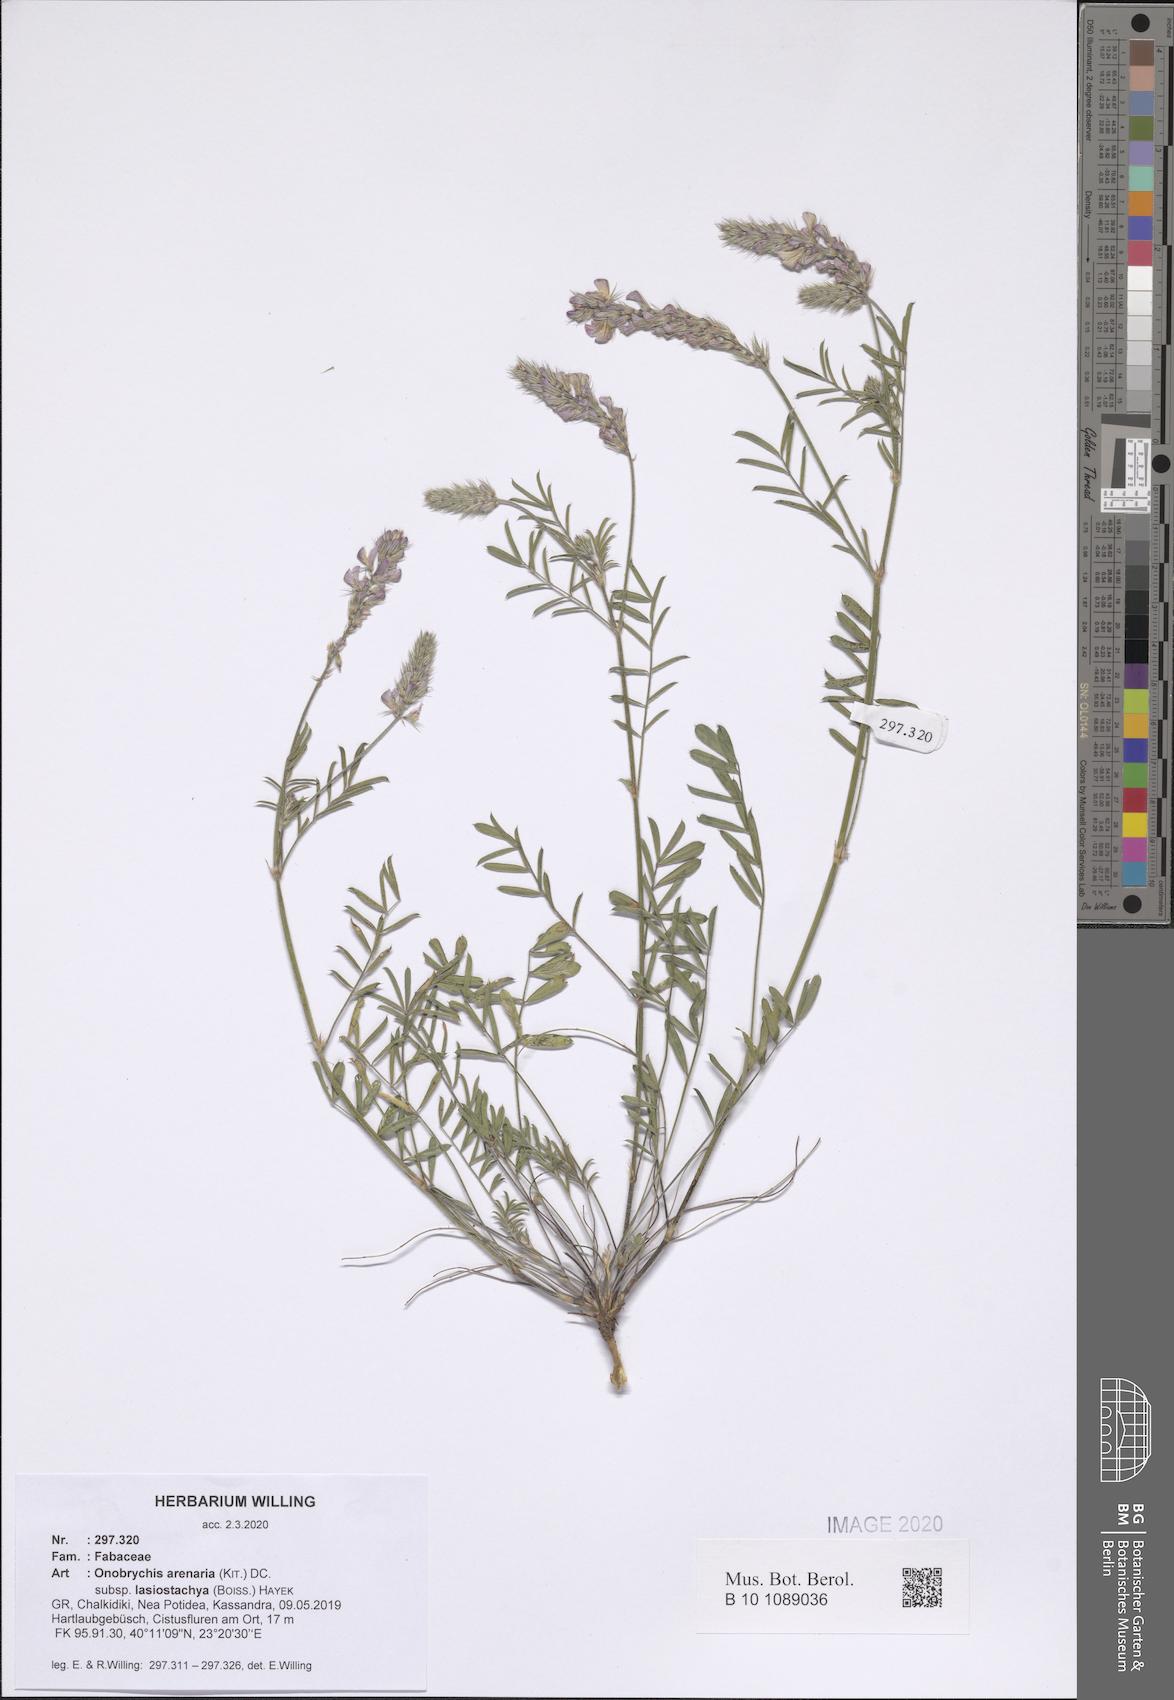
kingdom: Plantae
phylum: Tracheophyta
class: Magnoliopsida
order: Fabales
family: Fabaceae
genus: Onobrychis
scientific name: Onobrychis arenaria
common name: Sand esparcet
